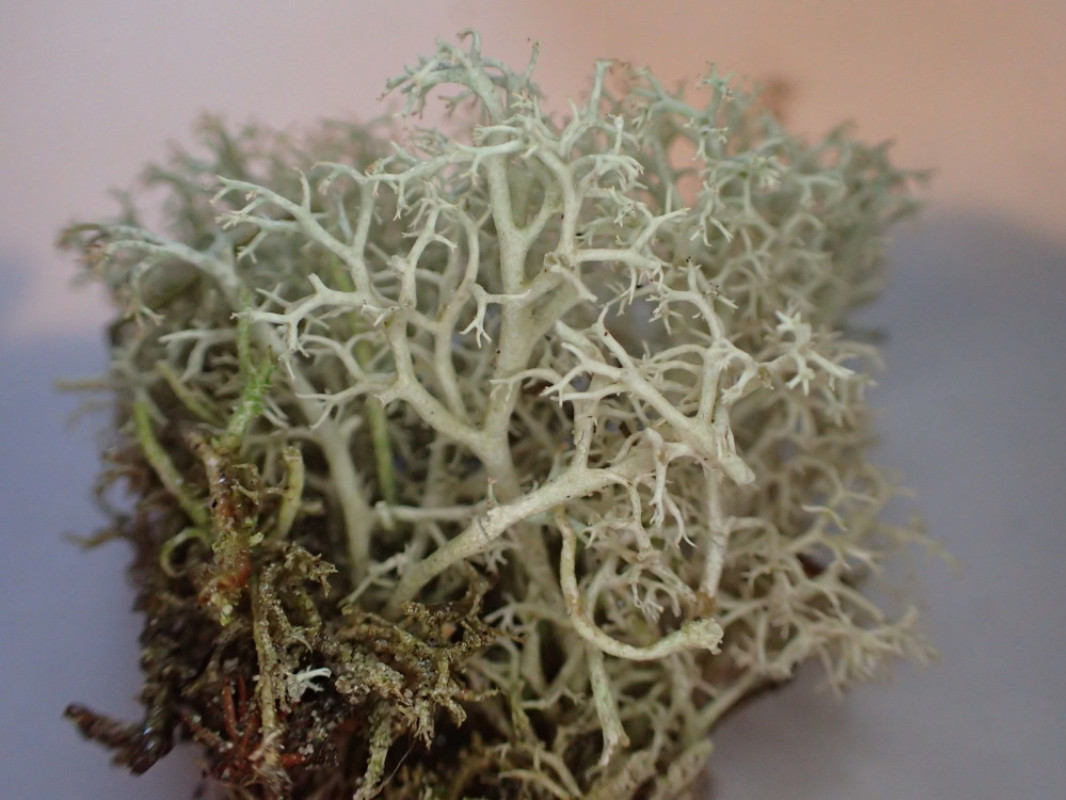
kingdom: Fungi
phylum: Ascomycota
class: Lecanoromycetes
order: Lecanorales
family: Cladoniaceae
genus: Cladonia
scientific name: Cladonia portentosa
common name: hede-rensdyrlav
